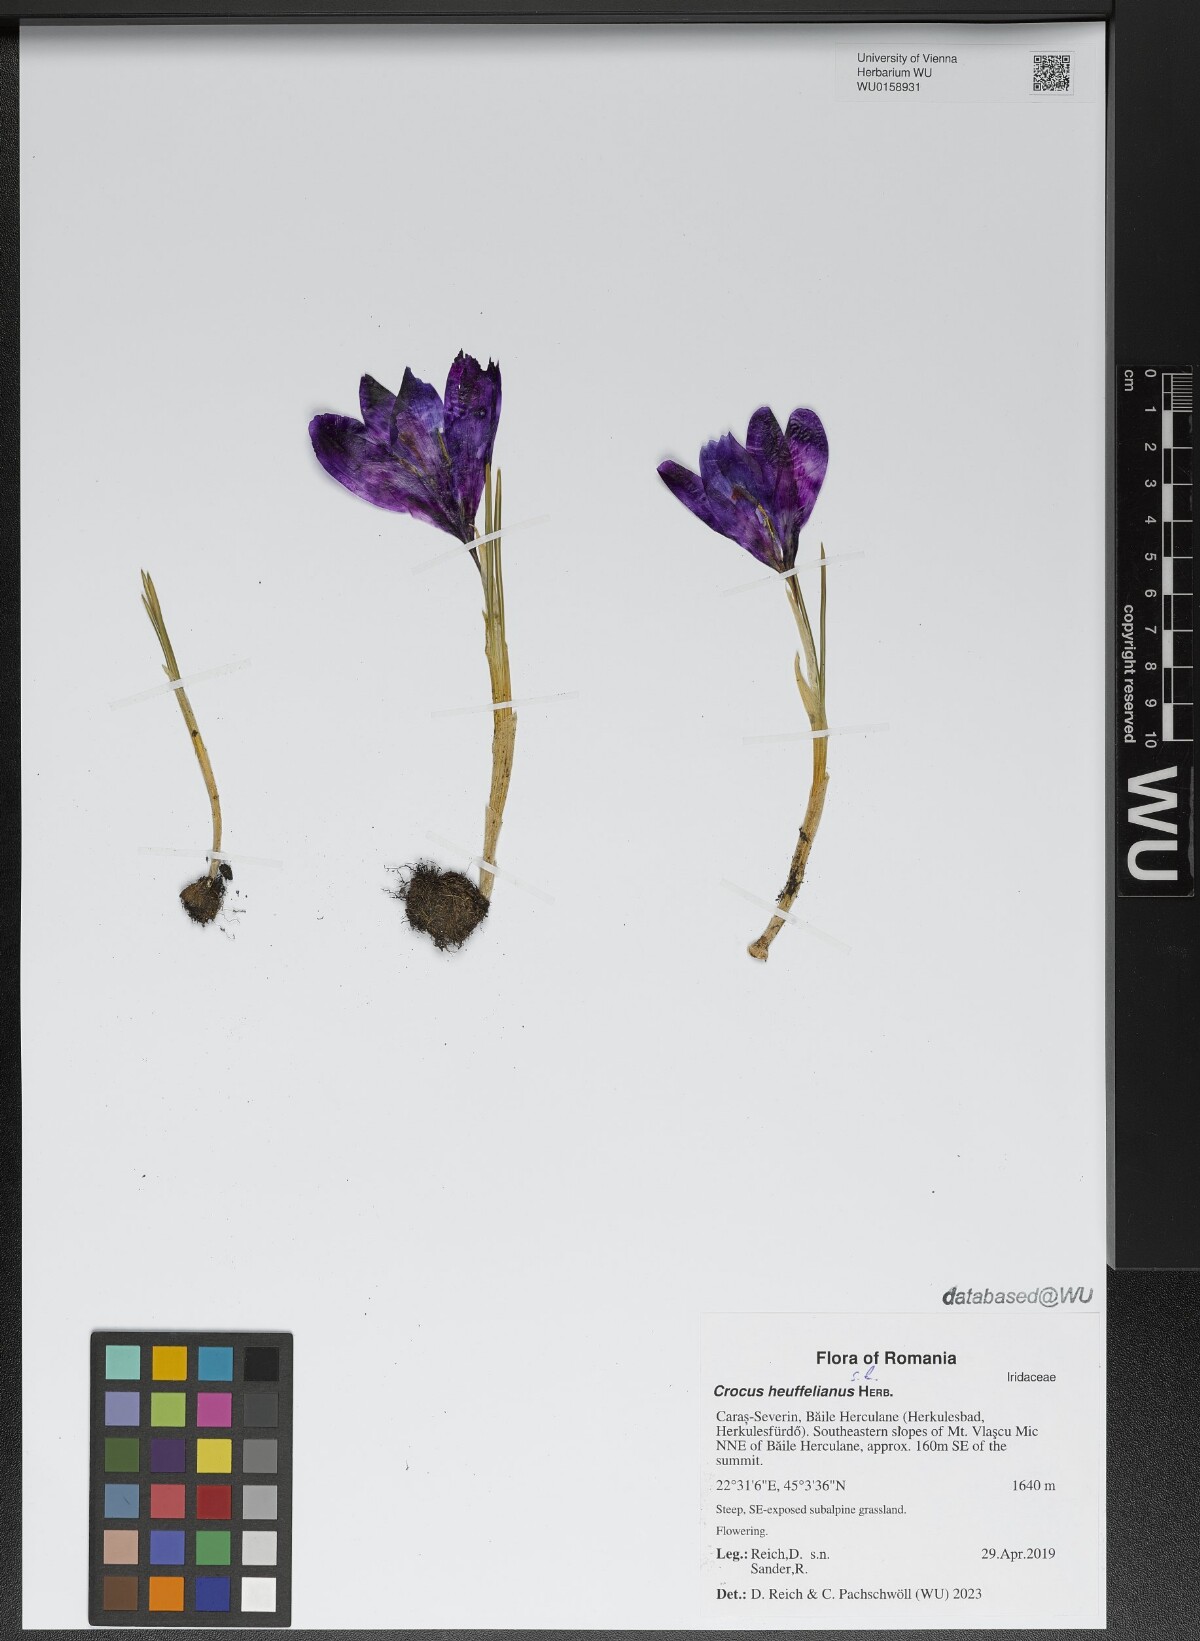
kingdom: Plantae
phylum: Tracheophyta
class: Liliopsida
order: Asparagales
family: Iridaceae
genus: Crocus
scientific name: Crocus heuffelianus
